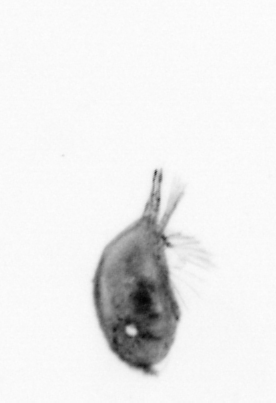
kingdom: Animalia
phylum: Arthropoda
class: Maxillopoda
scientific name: Maxillopoda
